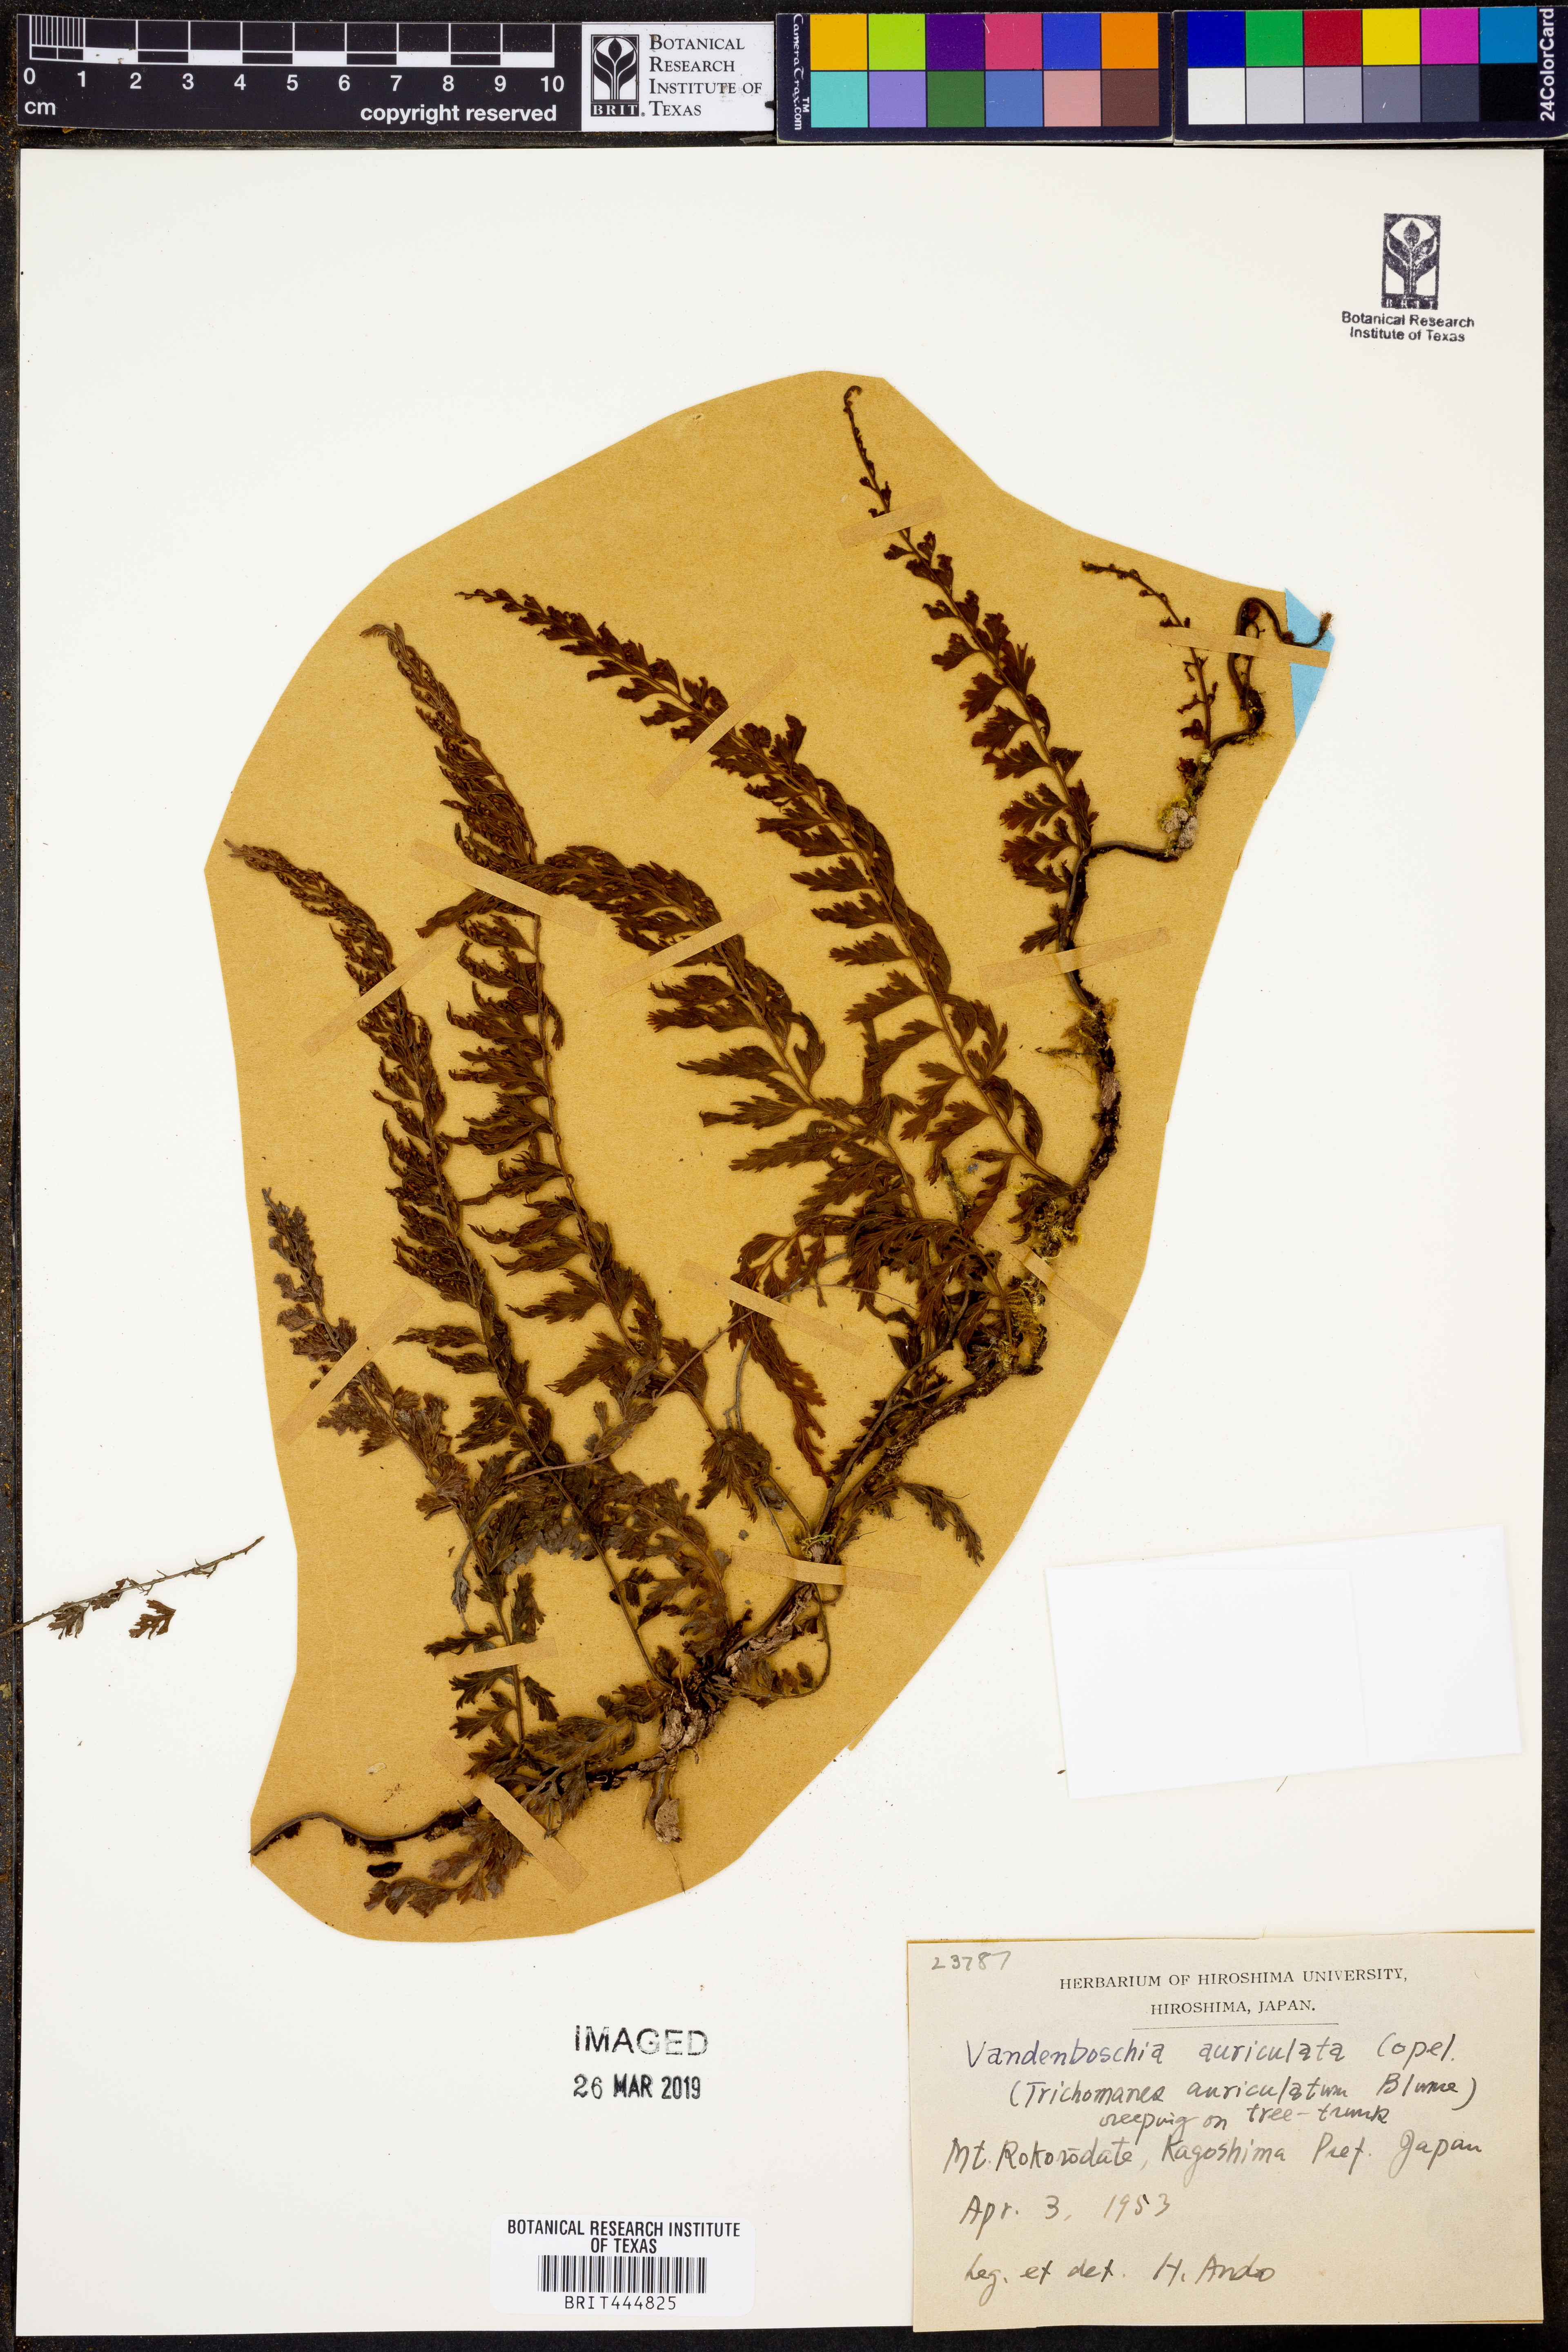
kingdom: Plantae
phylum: Tracheophyta
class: Polypodiopsida
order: Hymenophyllales
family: Hymenophyllaceae
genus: Vandenboschia
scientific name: Vandenboschia auriculata
